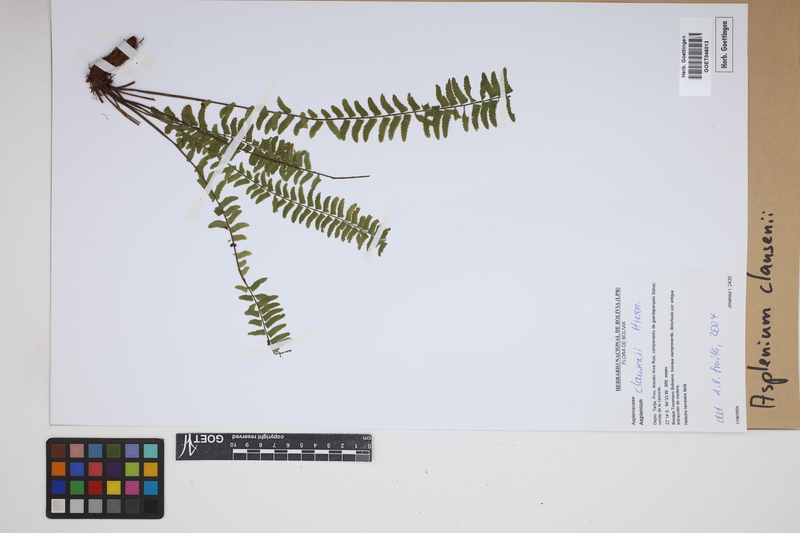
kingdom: Plantae
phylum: Tracheophyta
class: Polypodiopsida
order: Polypodiales
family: Aspleniaceae
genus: Asplenium
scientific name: Asplenium claussenii
